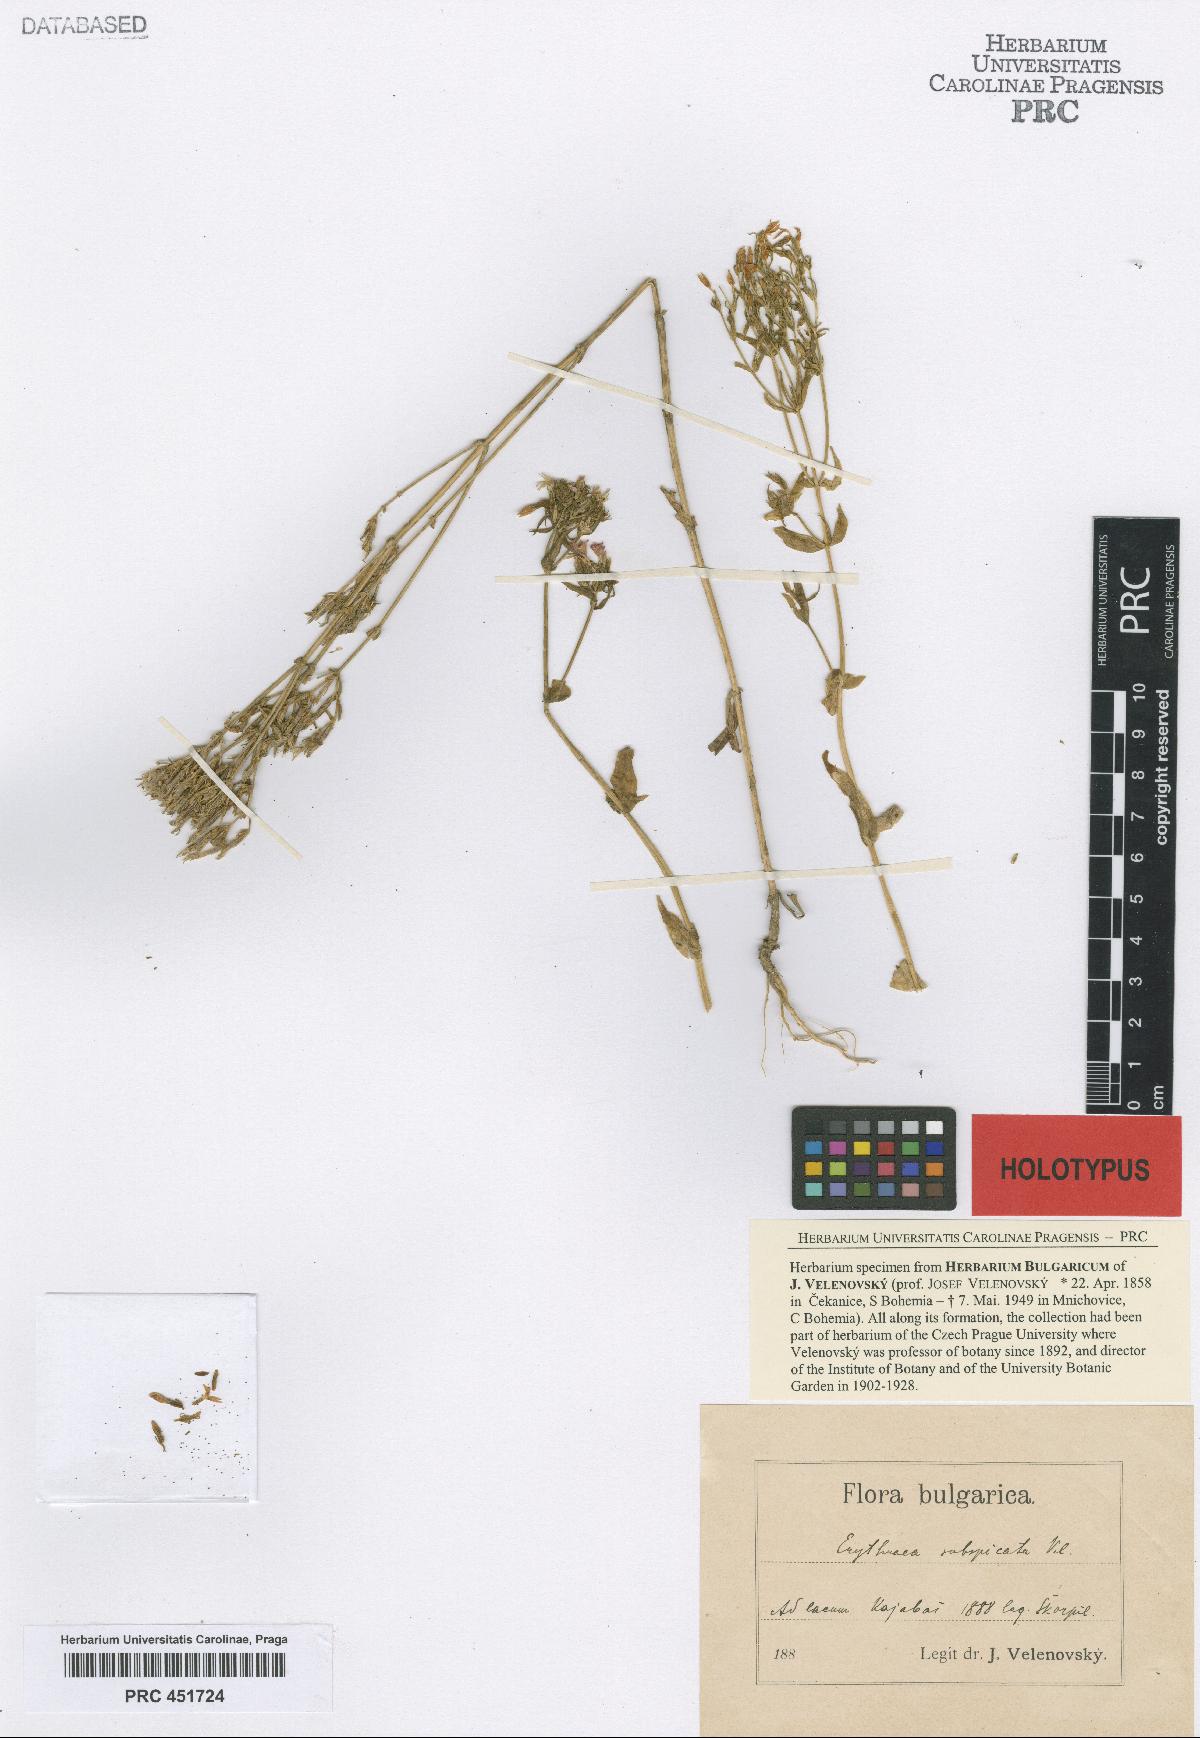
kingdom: Plantae
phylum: Tracheophyta
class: Magnoliopsida
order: Gentianales
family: Gentianaceae
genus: Schenkia
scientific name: Schenkia spicata
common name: Spiked centaury
